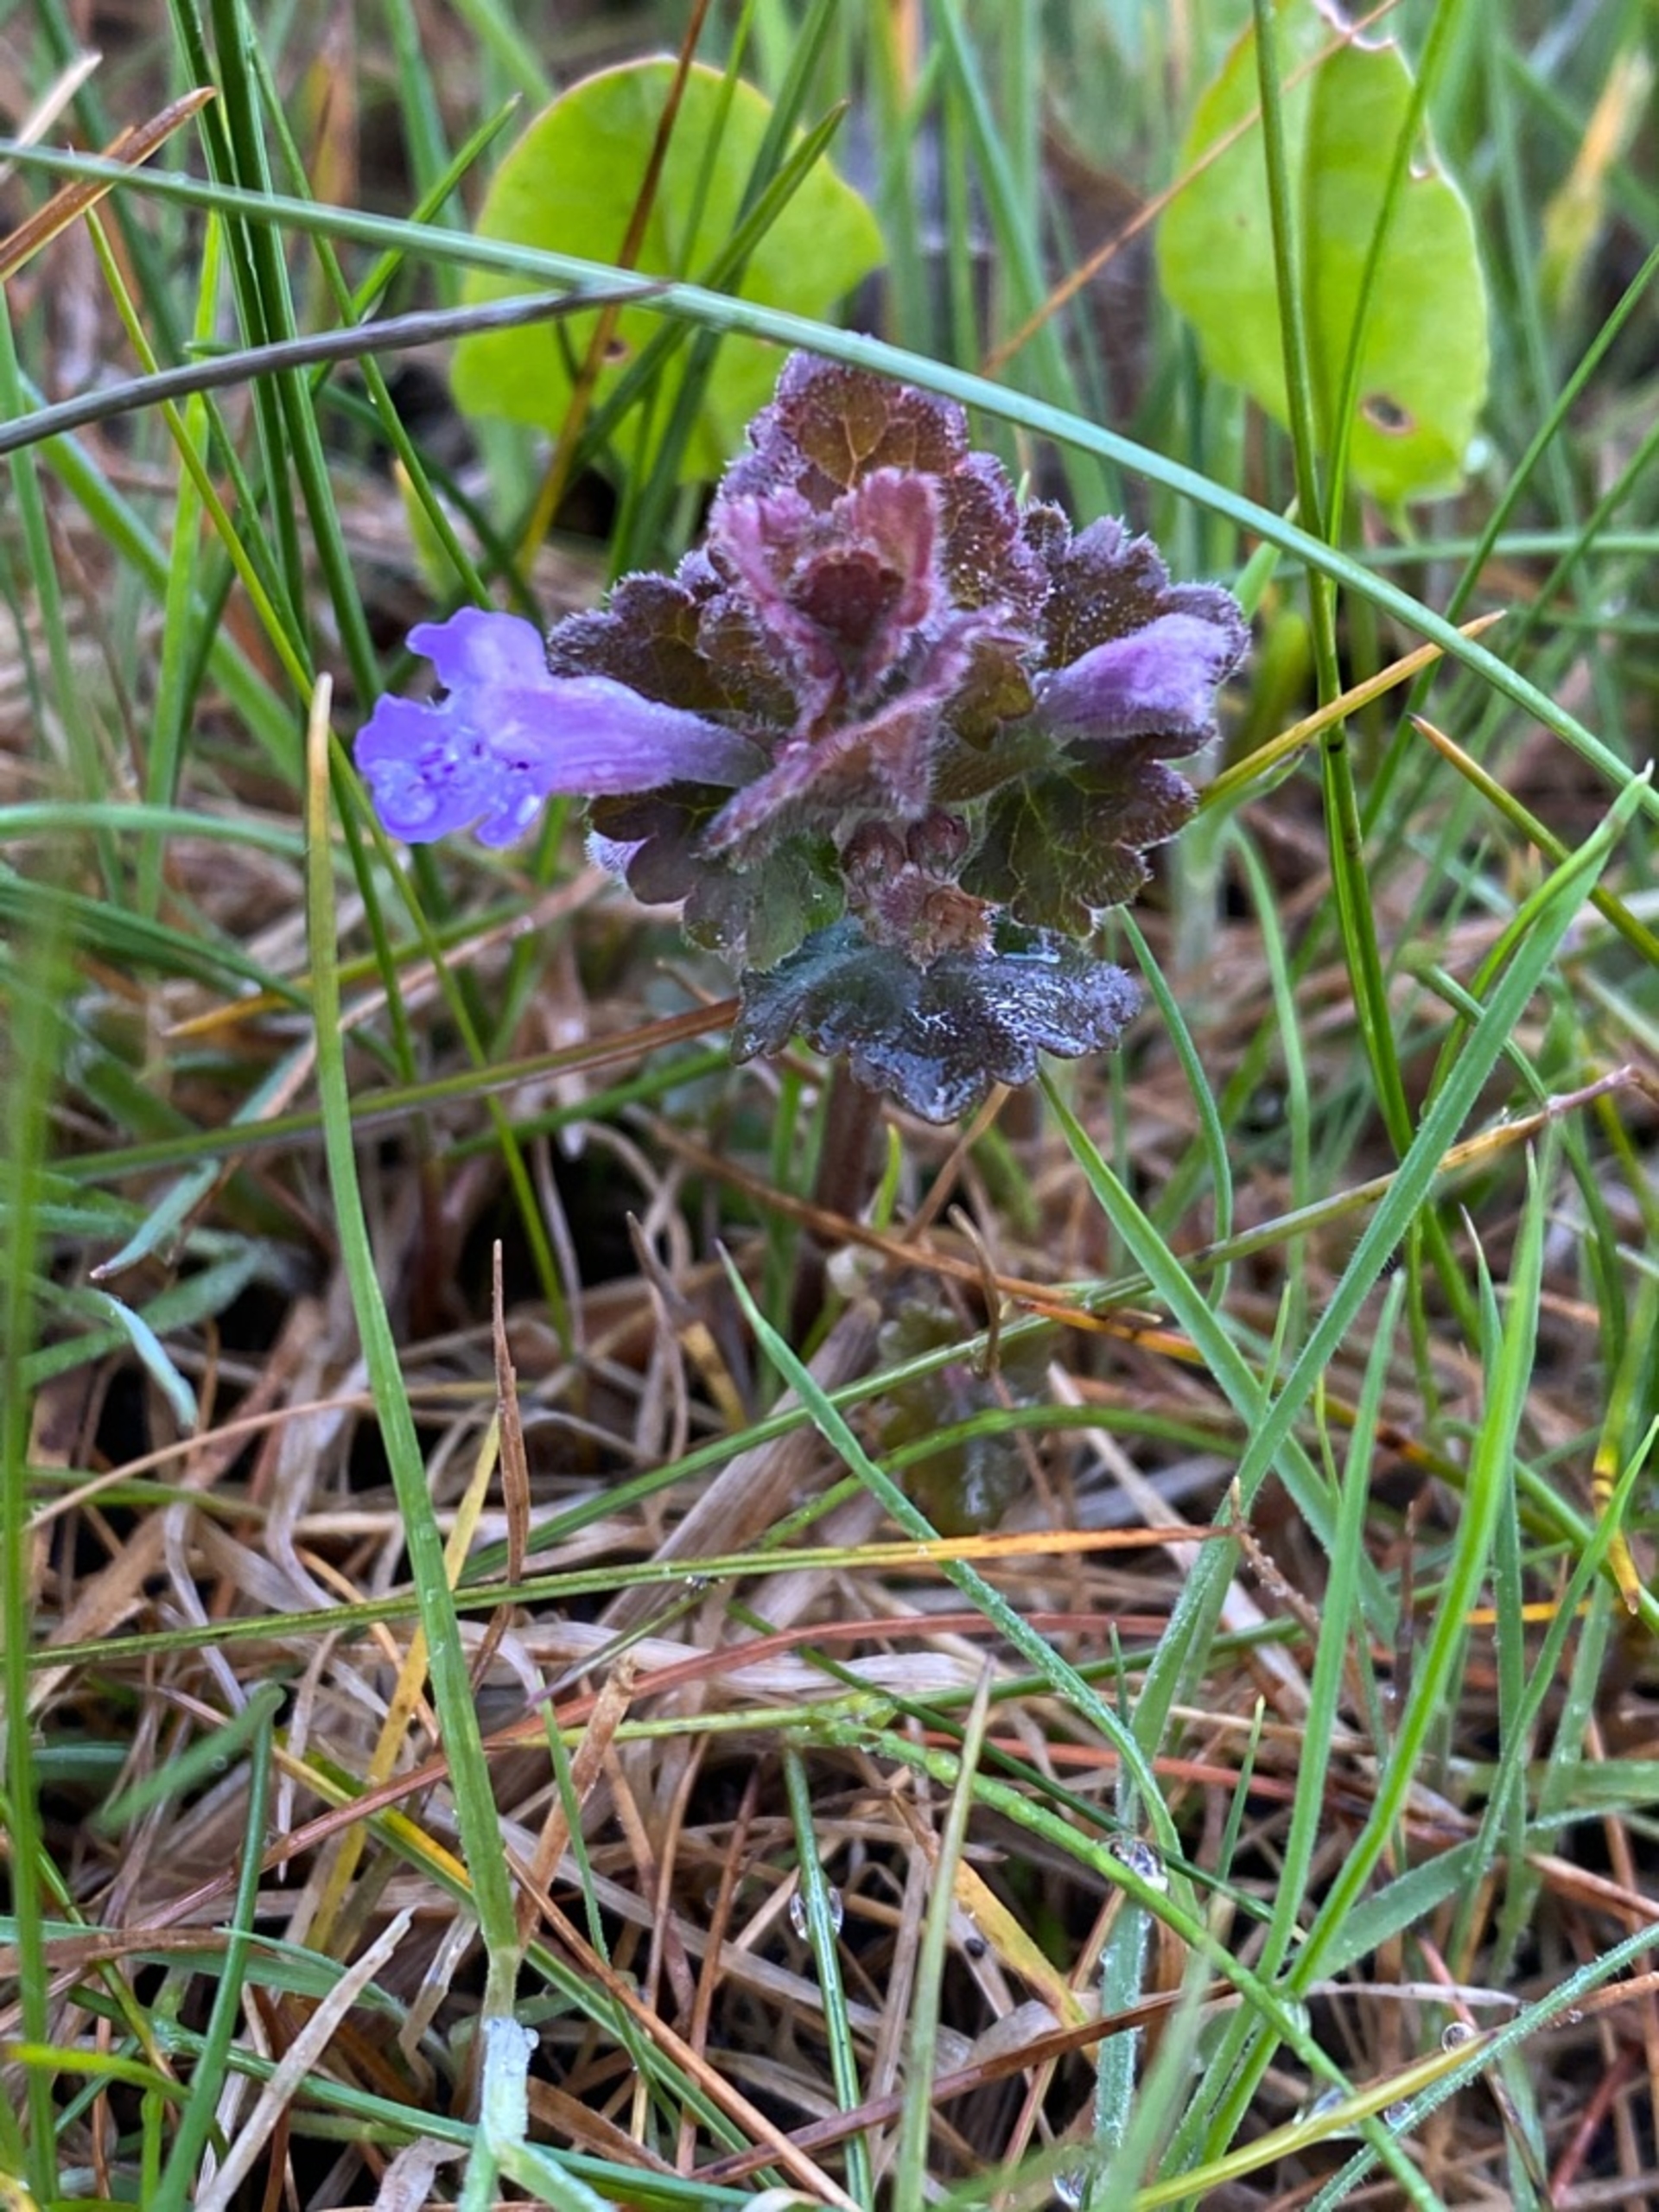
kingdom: Plantae
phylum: Tracheophyta
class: Magnoliopsida
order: Lamiales
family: Lamiaceae
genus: Glechoma
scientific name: Glechoma hederacea
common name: Korsknap
